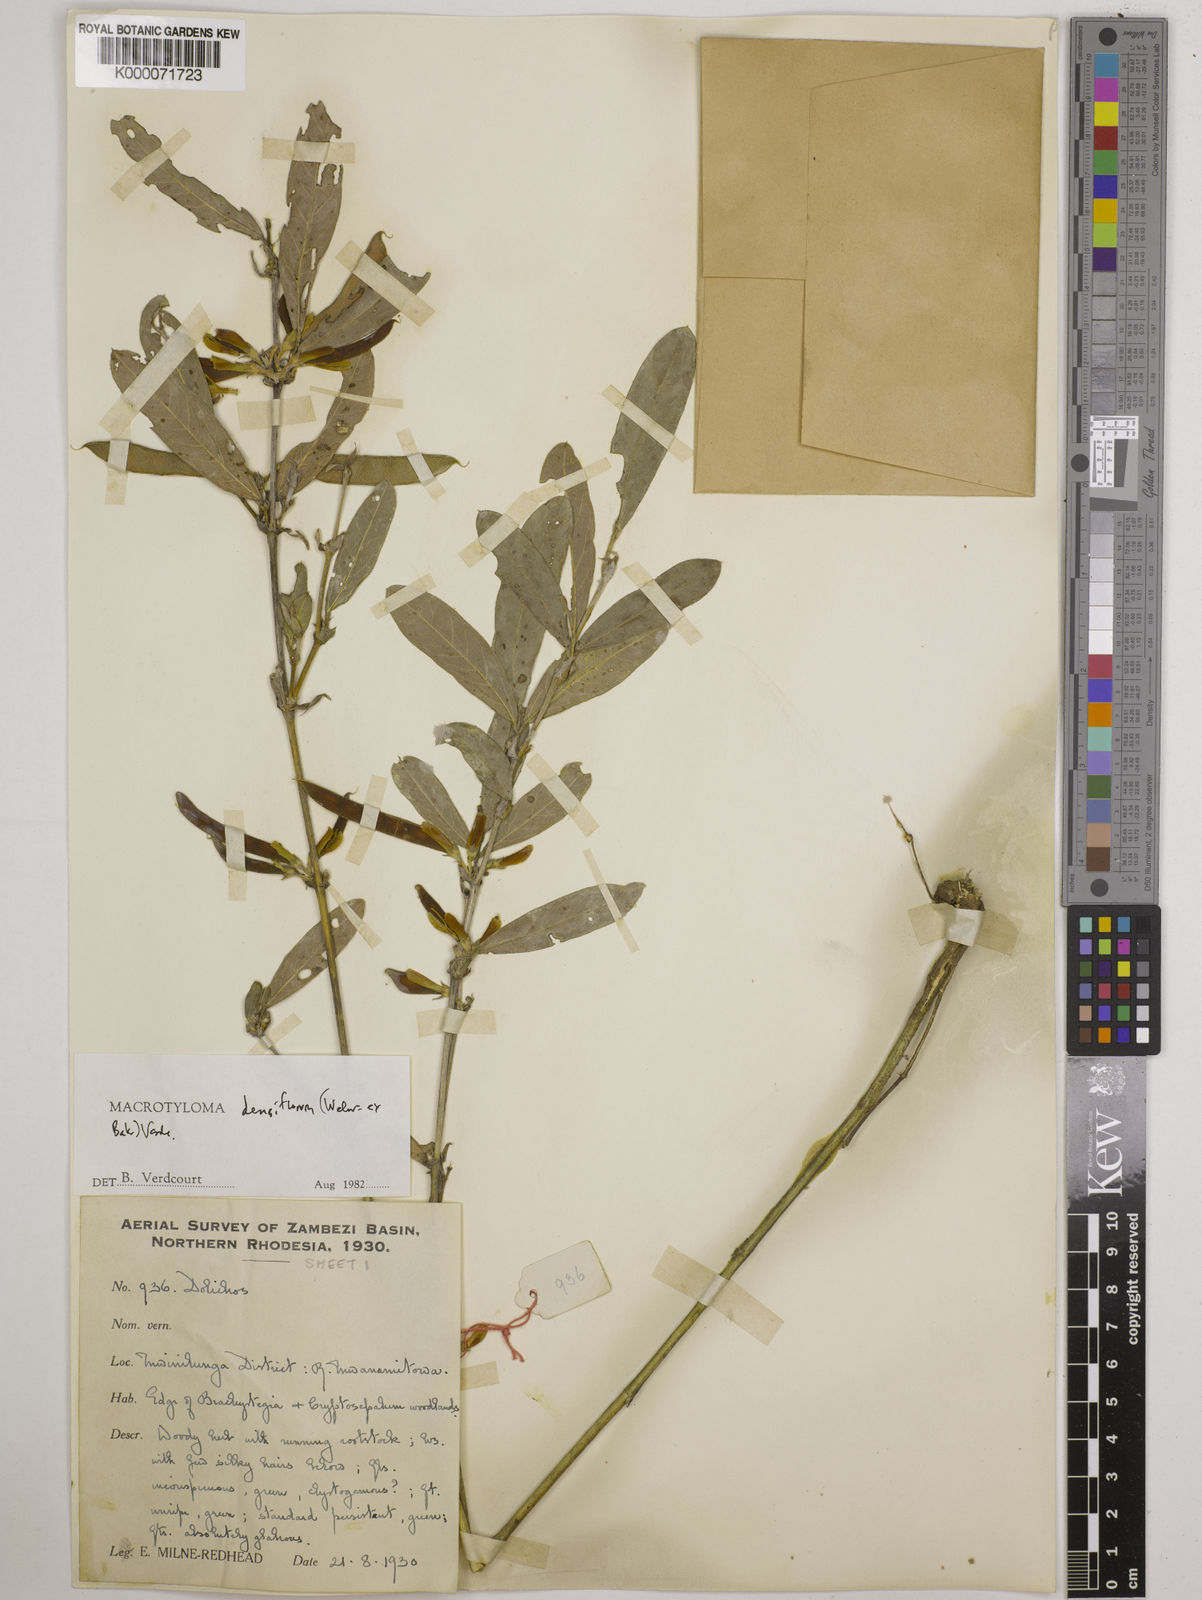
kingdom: Plantae
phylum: Tracheophyta
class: Magnoliopsida
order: Fabales
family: Fabaceae
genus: Macrotyloma
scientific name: Macrotyloma densiflorum
